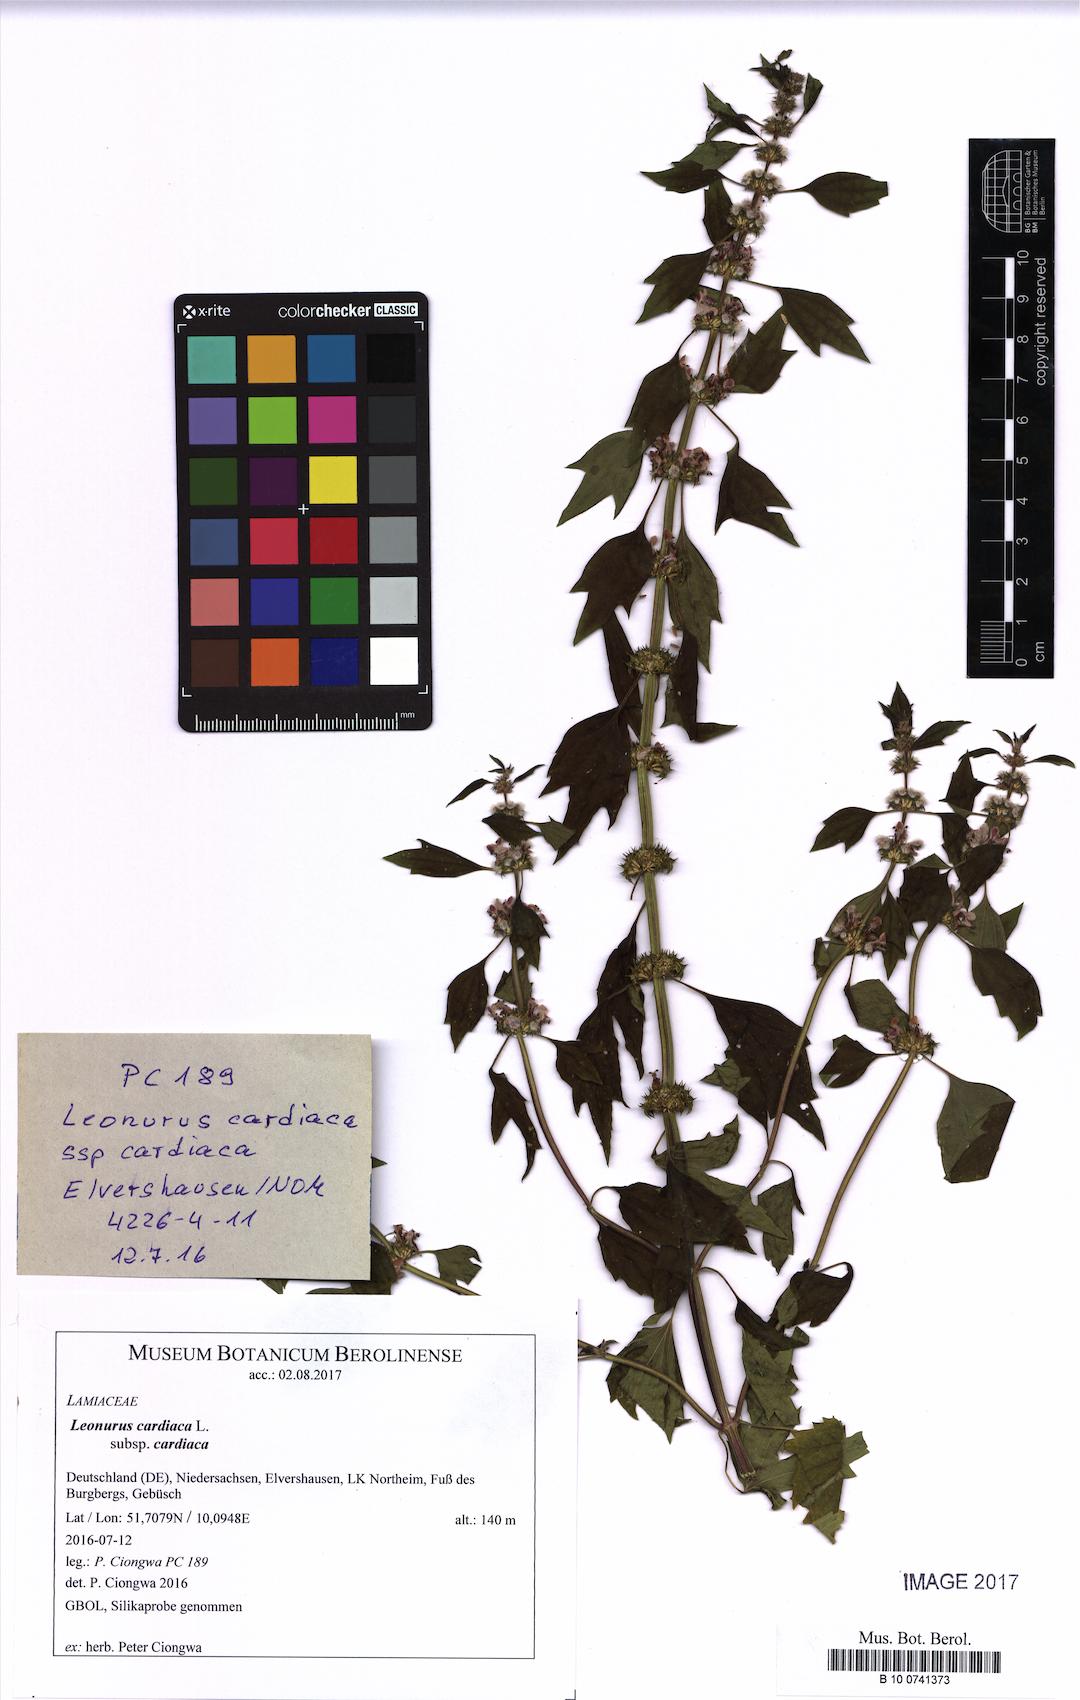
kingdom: Plantae
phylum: Tracheophyta
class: Magnoliopsida
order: Lamiales
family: Lamiaceae
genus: Leonurus
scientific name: Leonurus cardiaca
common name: Motherwort
